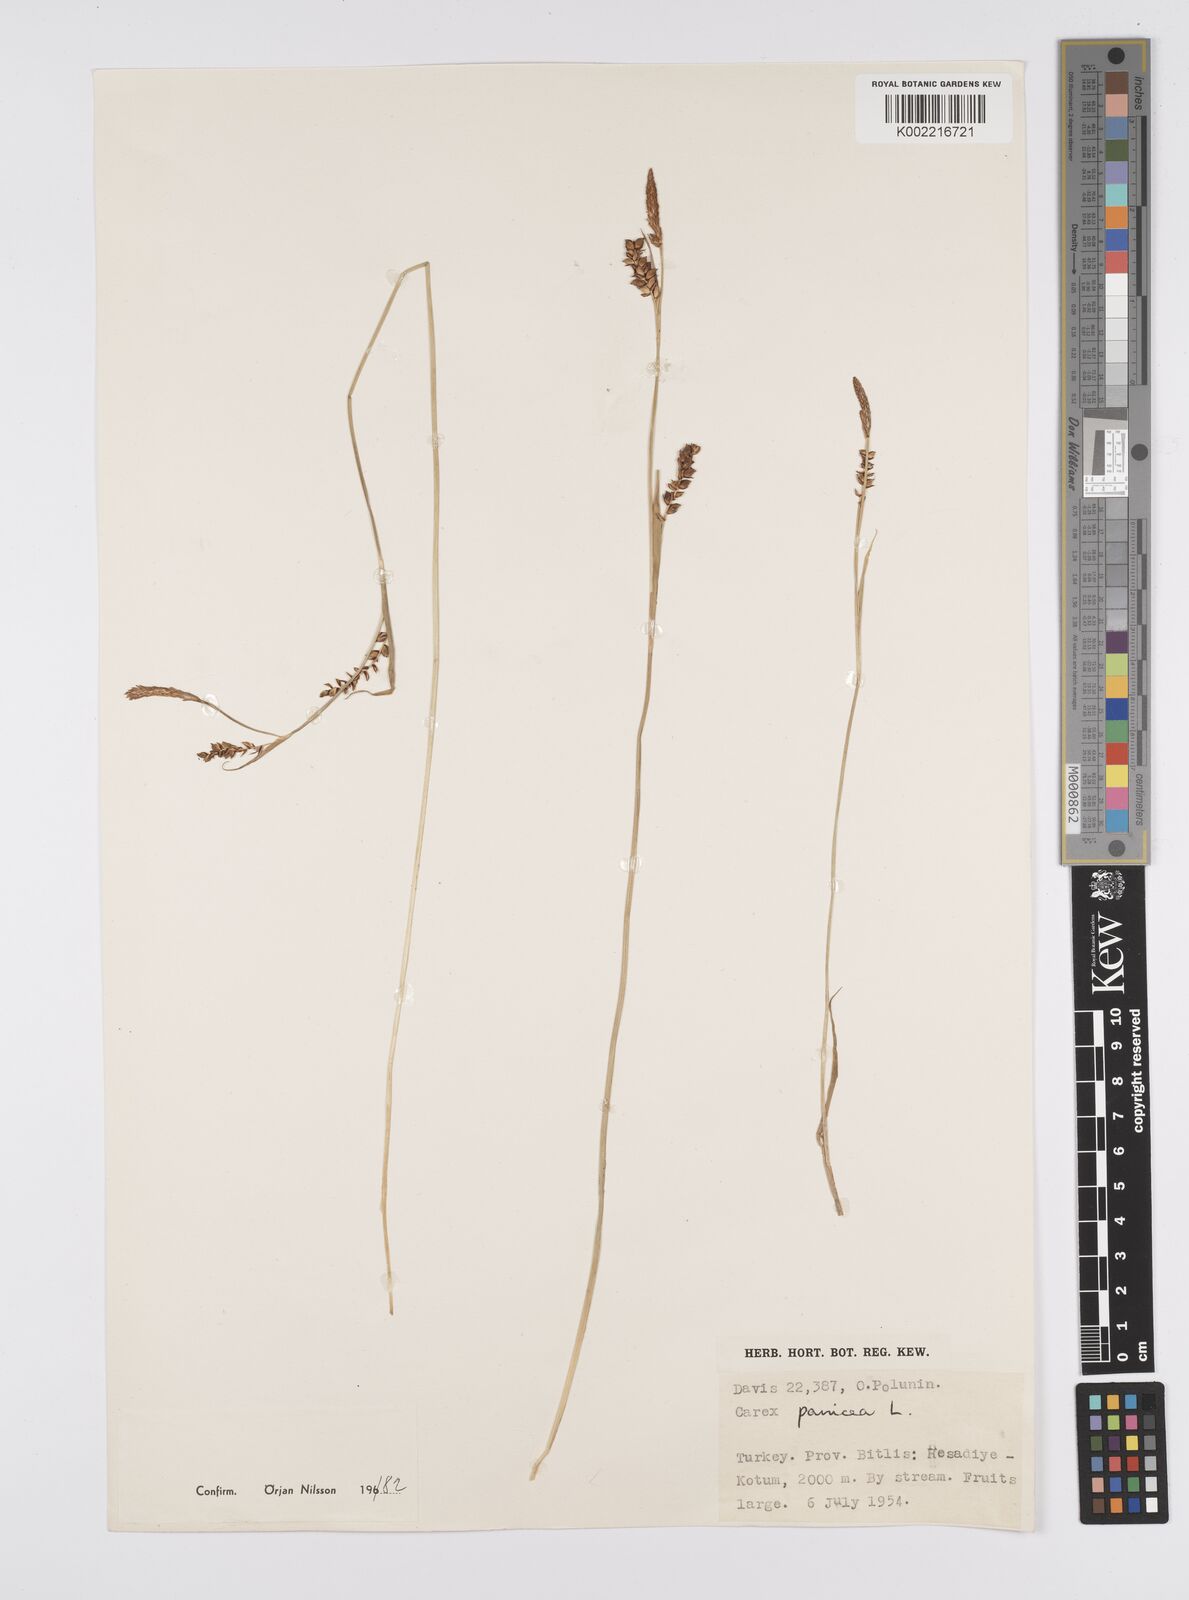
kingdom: Plantae
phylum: Tracheophyta
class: Liliopsida
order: Poales
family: Cyperaceae
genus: Carex
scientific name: Carex panicea
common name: Carnation sedge
